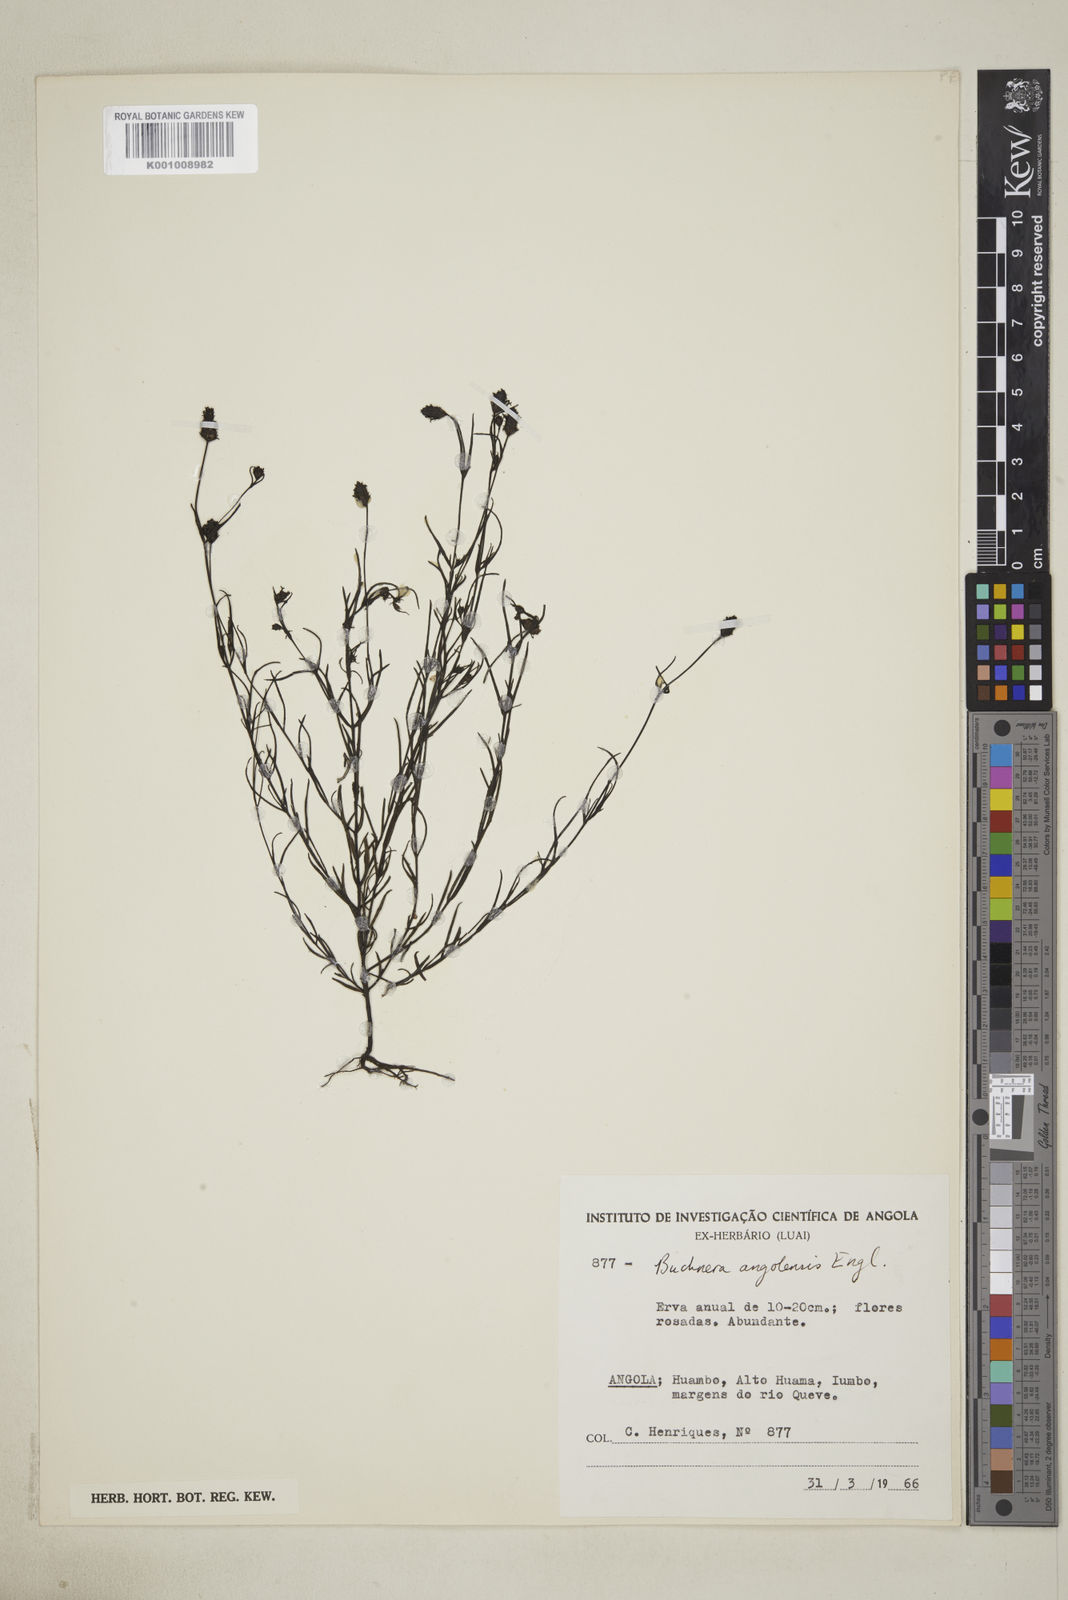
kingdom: Plantae
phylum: Tracheophyta
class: Magnoliopsida
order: Lamiales
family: Orobanchaceae
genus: Buchnera
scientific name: Buchnera lippioides
